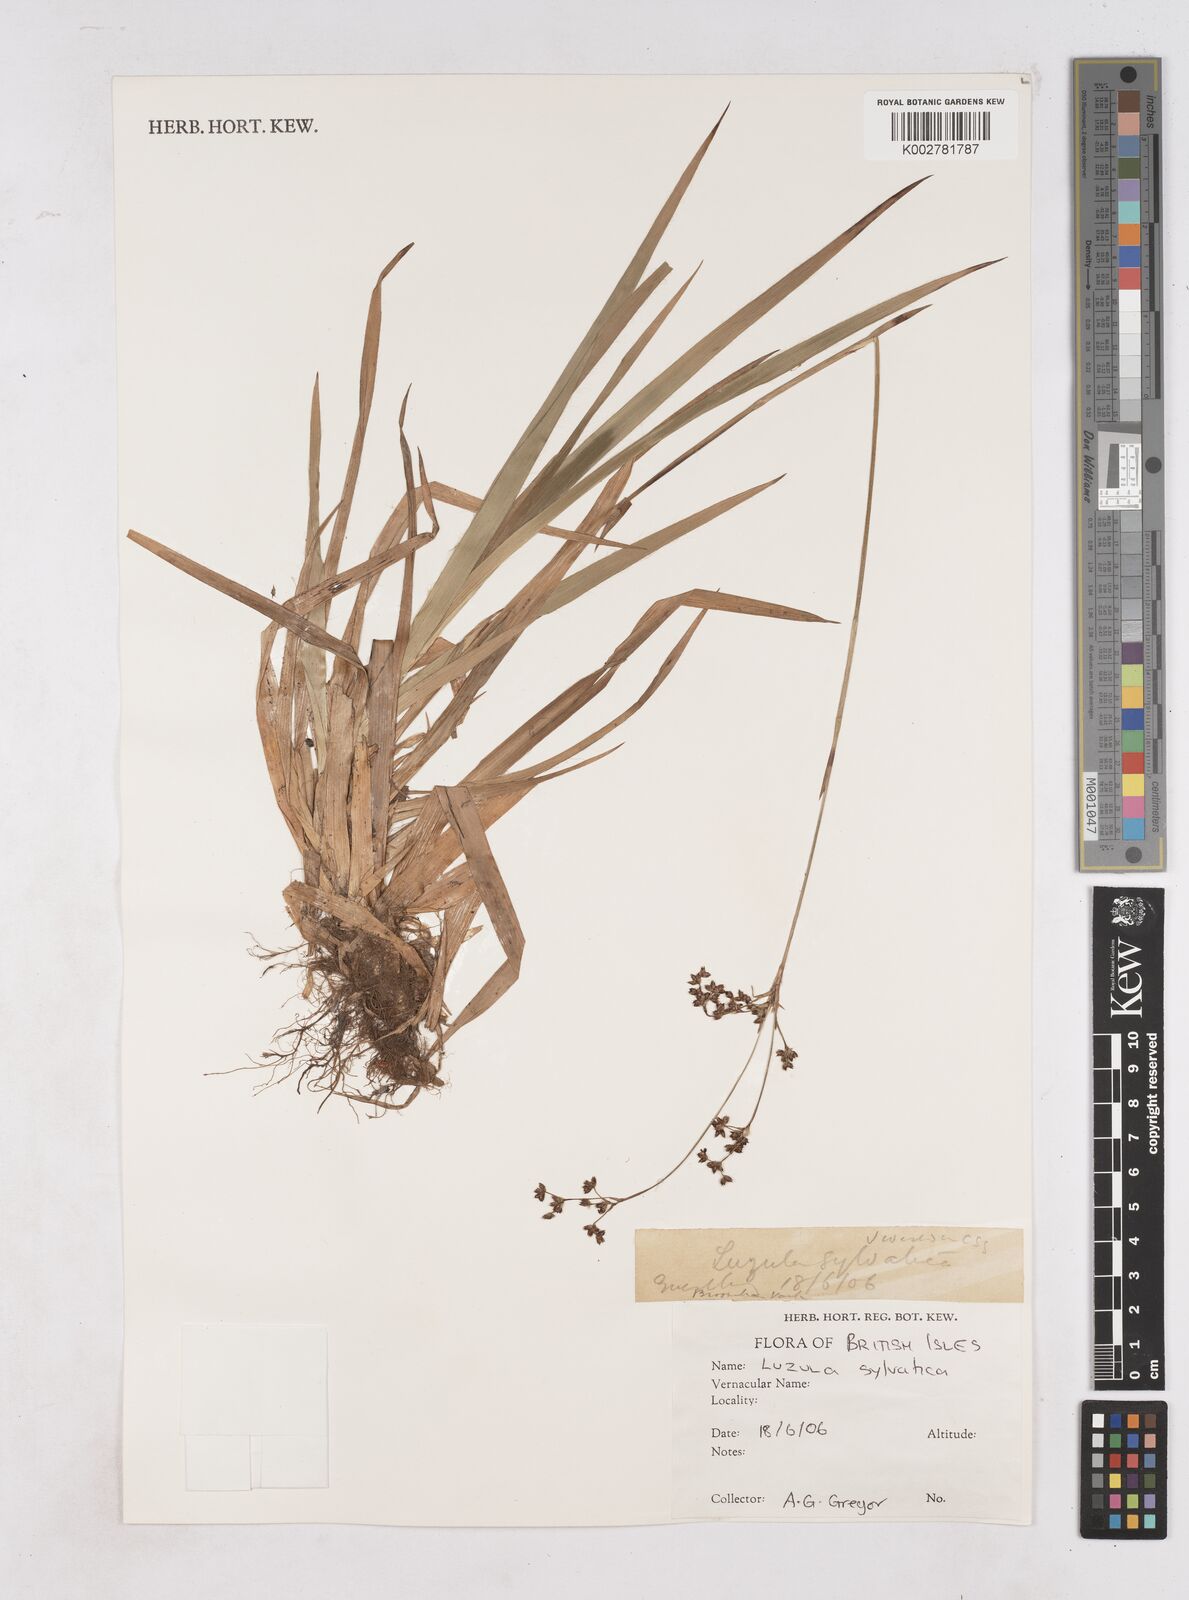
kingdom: Plantae
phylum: Tracheophyta
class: Liliopsida
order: Poales
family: Juncaceae
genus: Luzula
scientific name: Luzula sylvatica
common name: Great wood-rush
